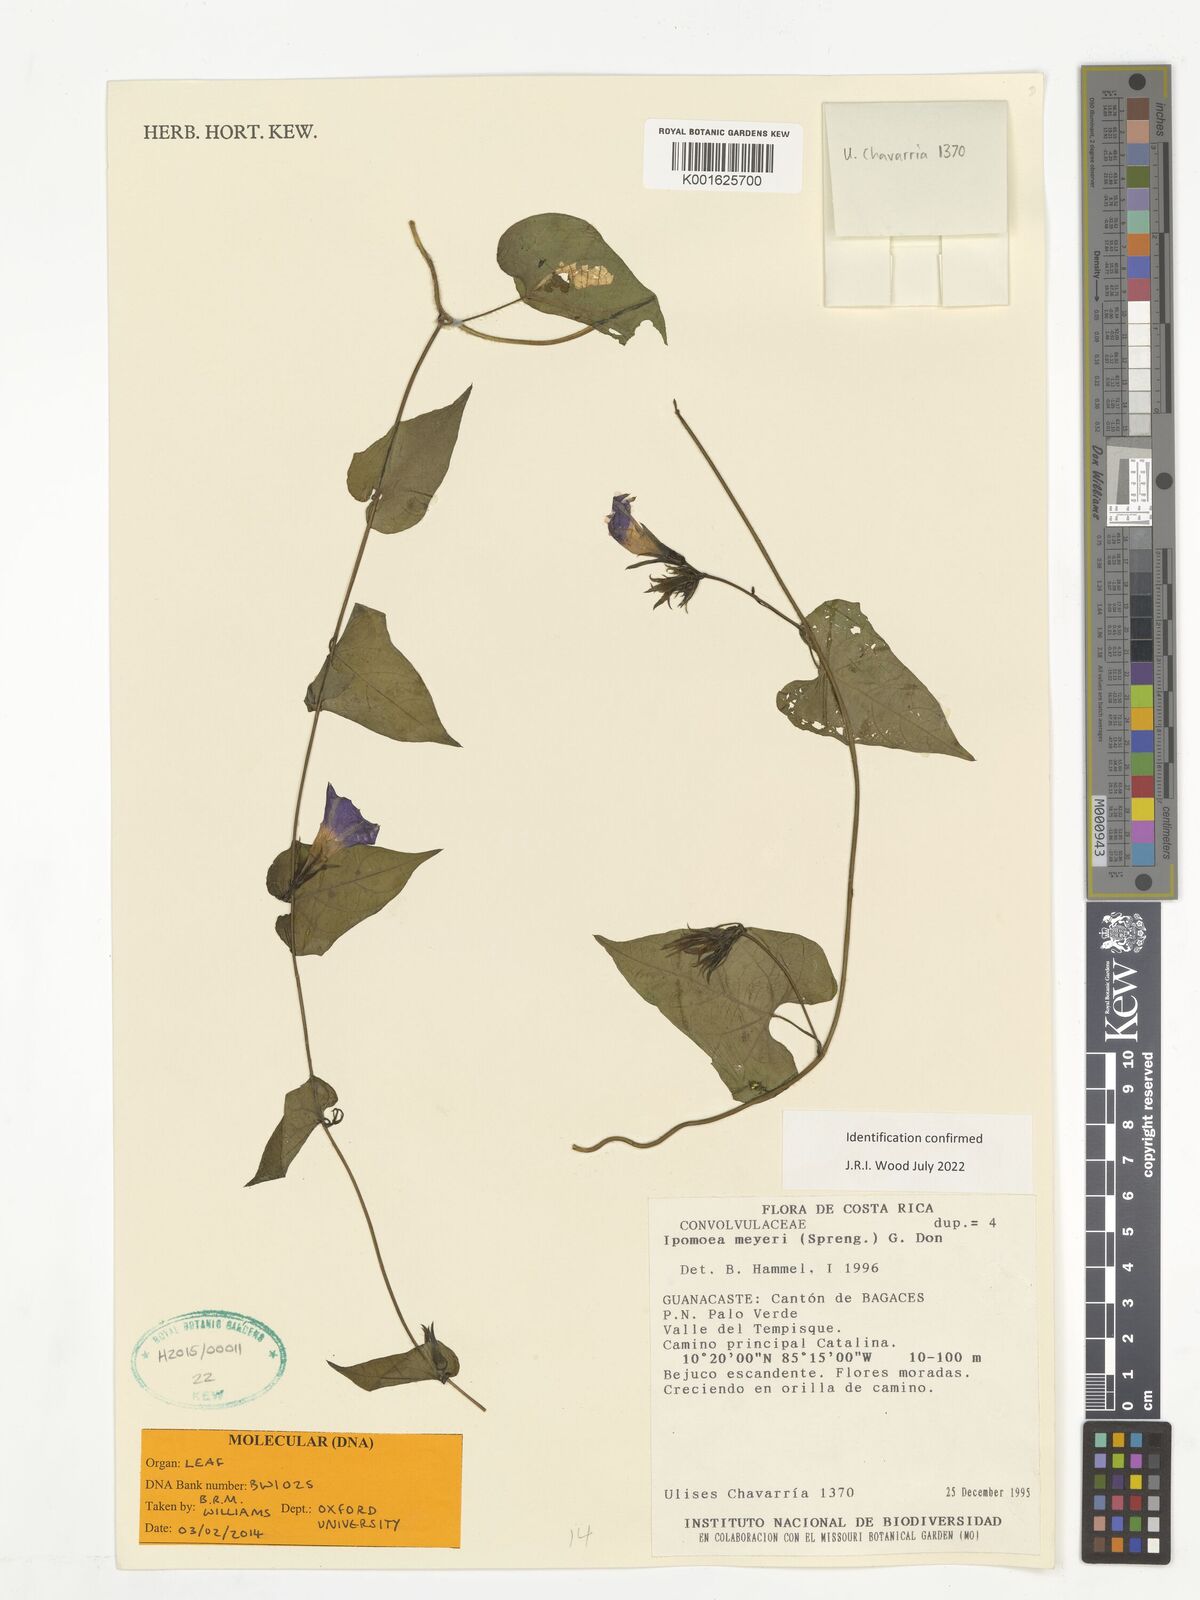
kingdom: Plantae
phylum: Tracheophyta
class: Magnoliopsida
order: Solanales
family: Convolvulaceae
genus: Ipomoea
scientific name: Ipomoea meyeri
